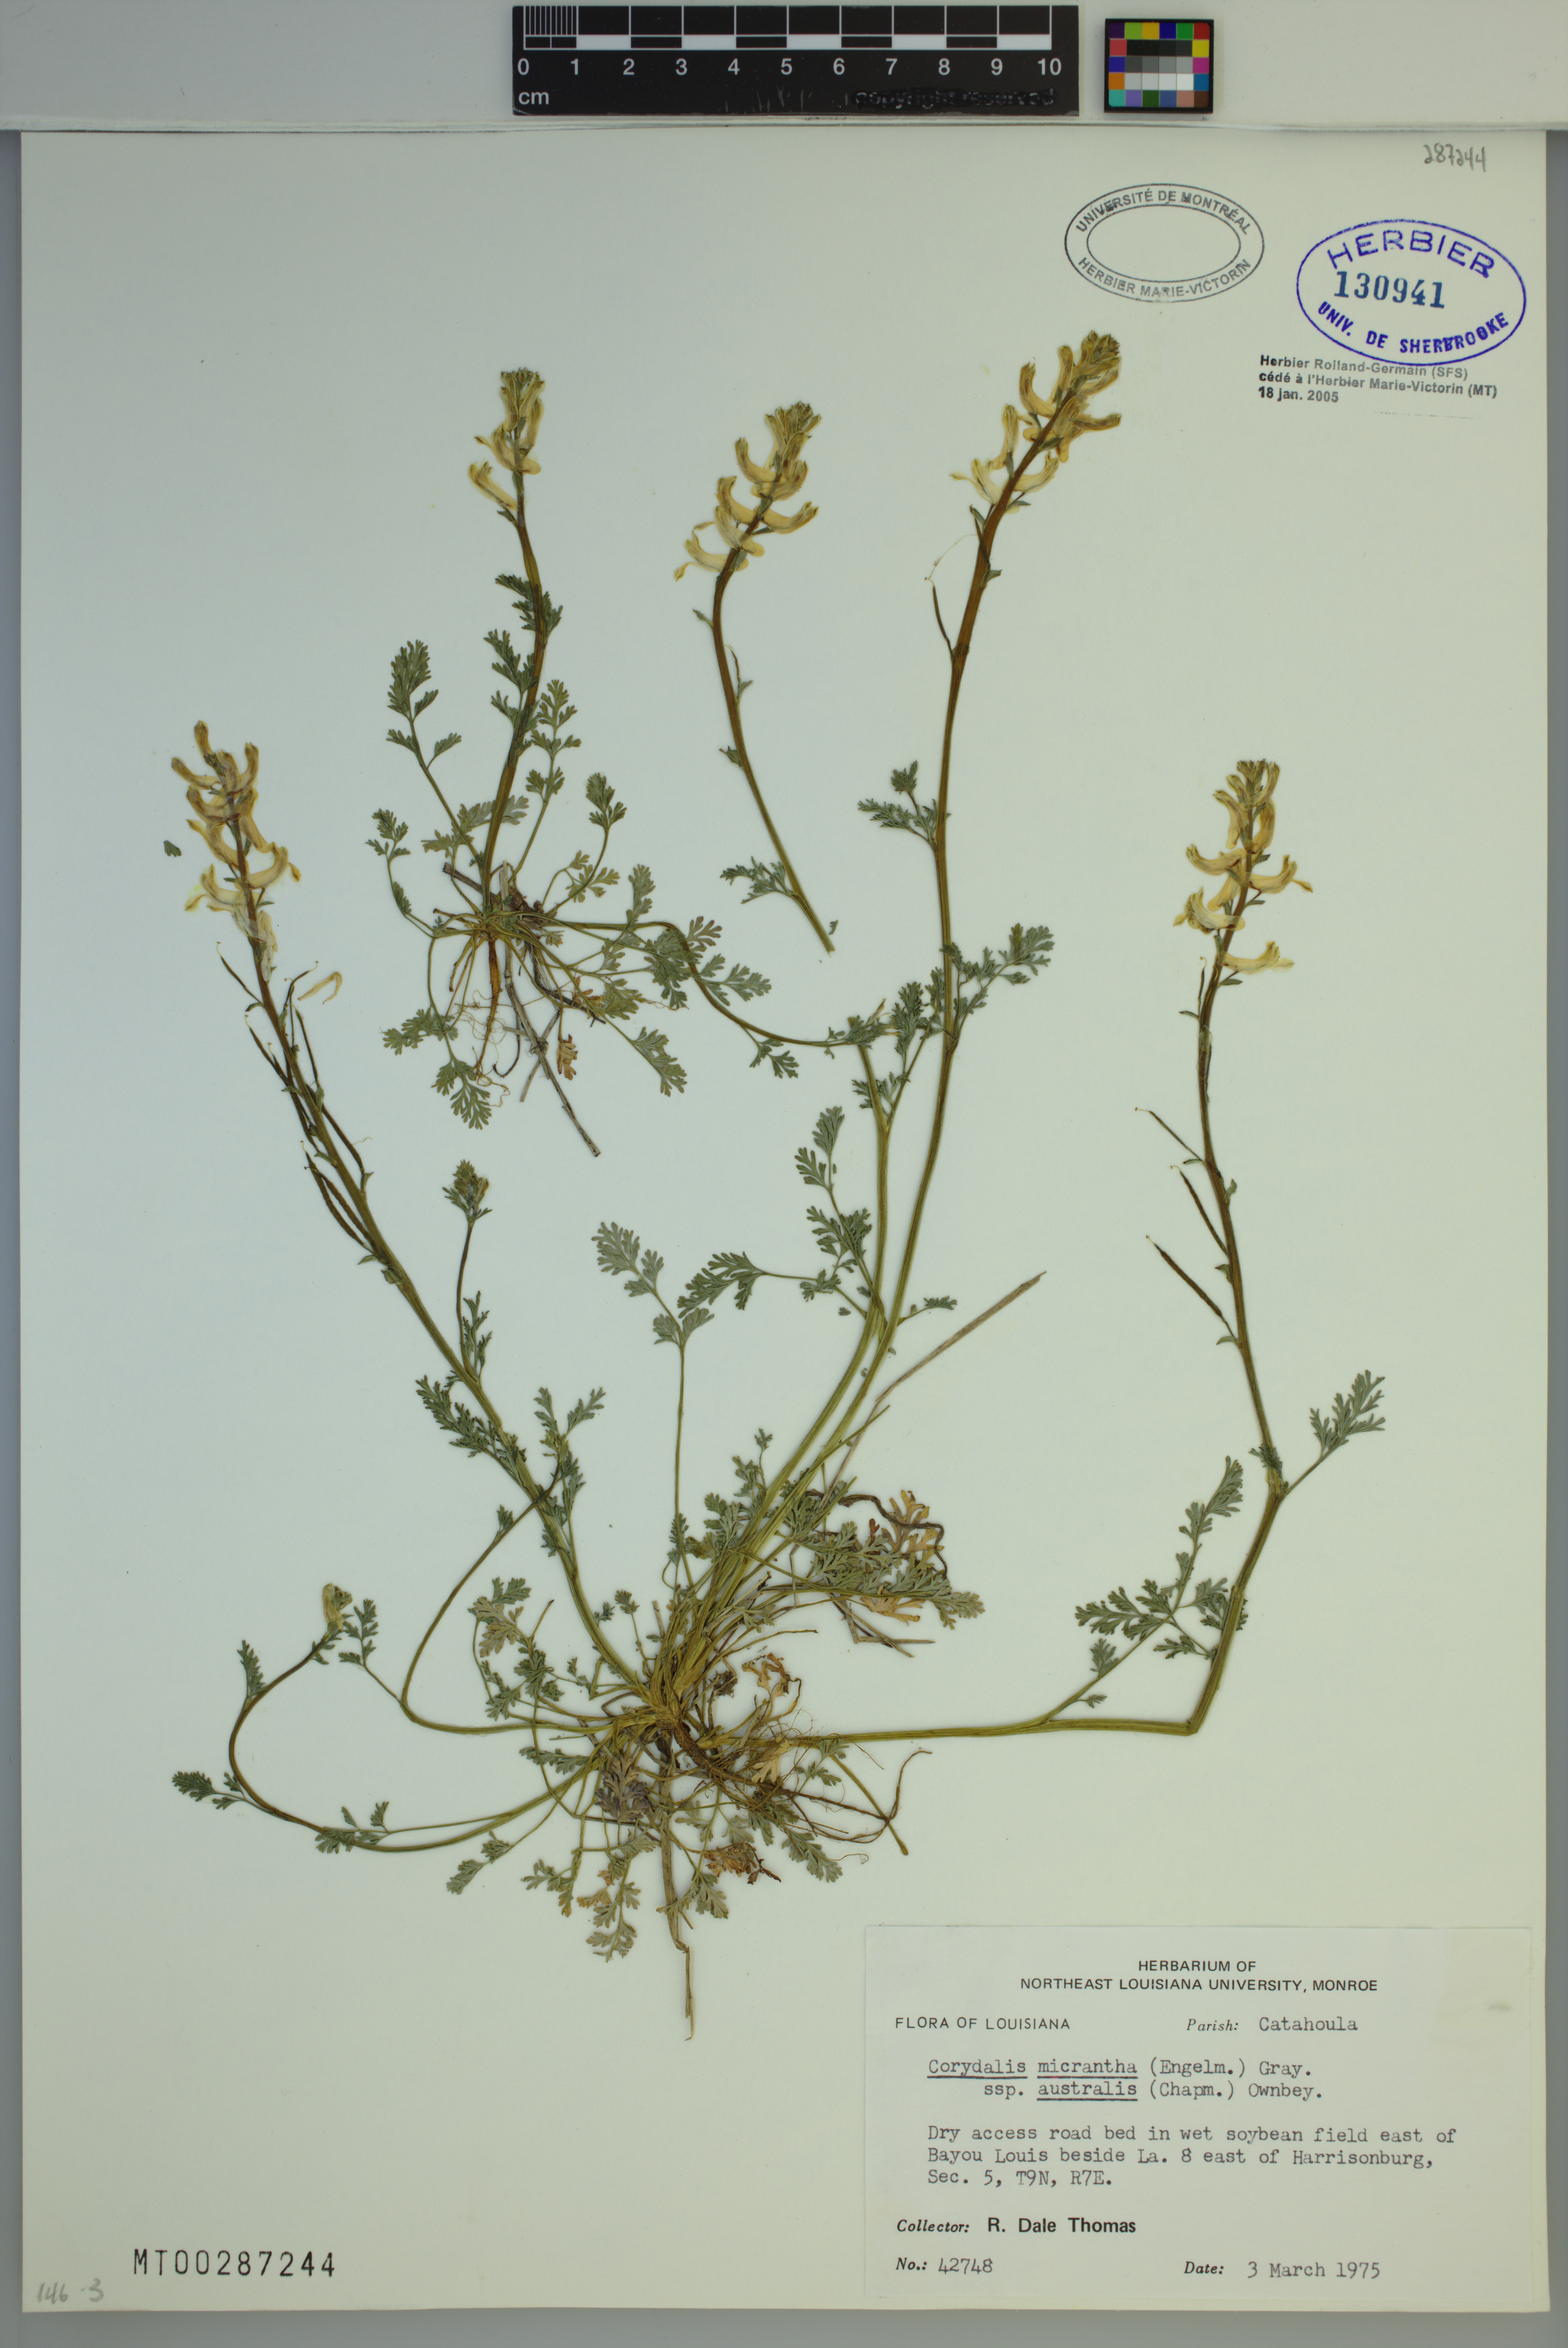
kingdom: Plantae
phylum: Tracheophyta
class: Magnoliopsida
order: Ranunculales
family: Papaveraceae
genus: Corydalis
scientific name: Corydalis micrantha
